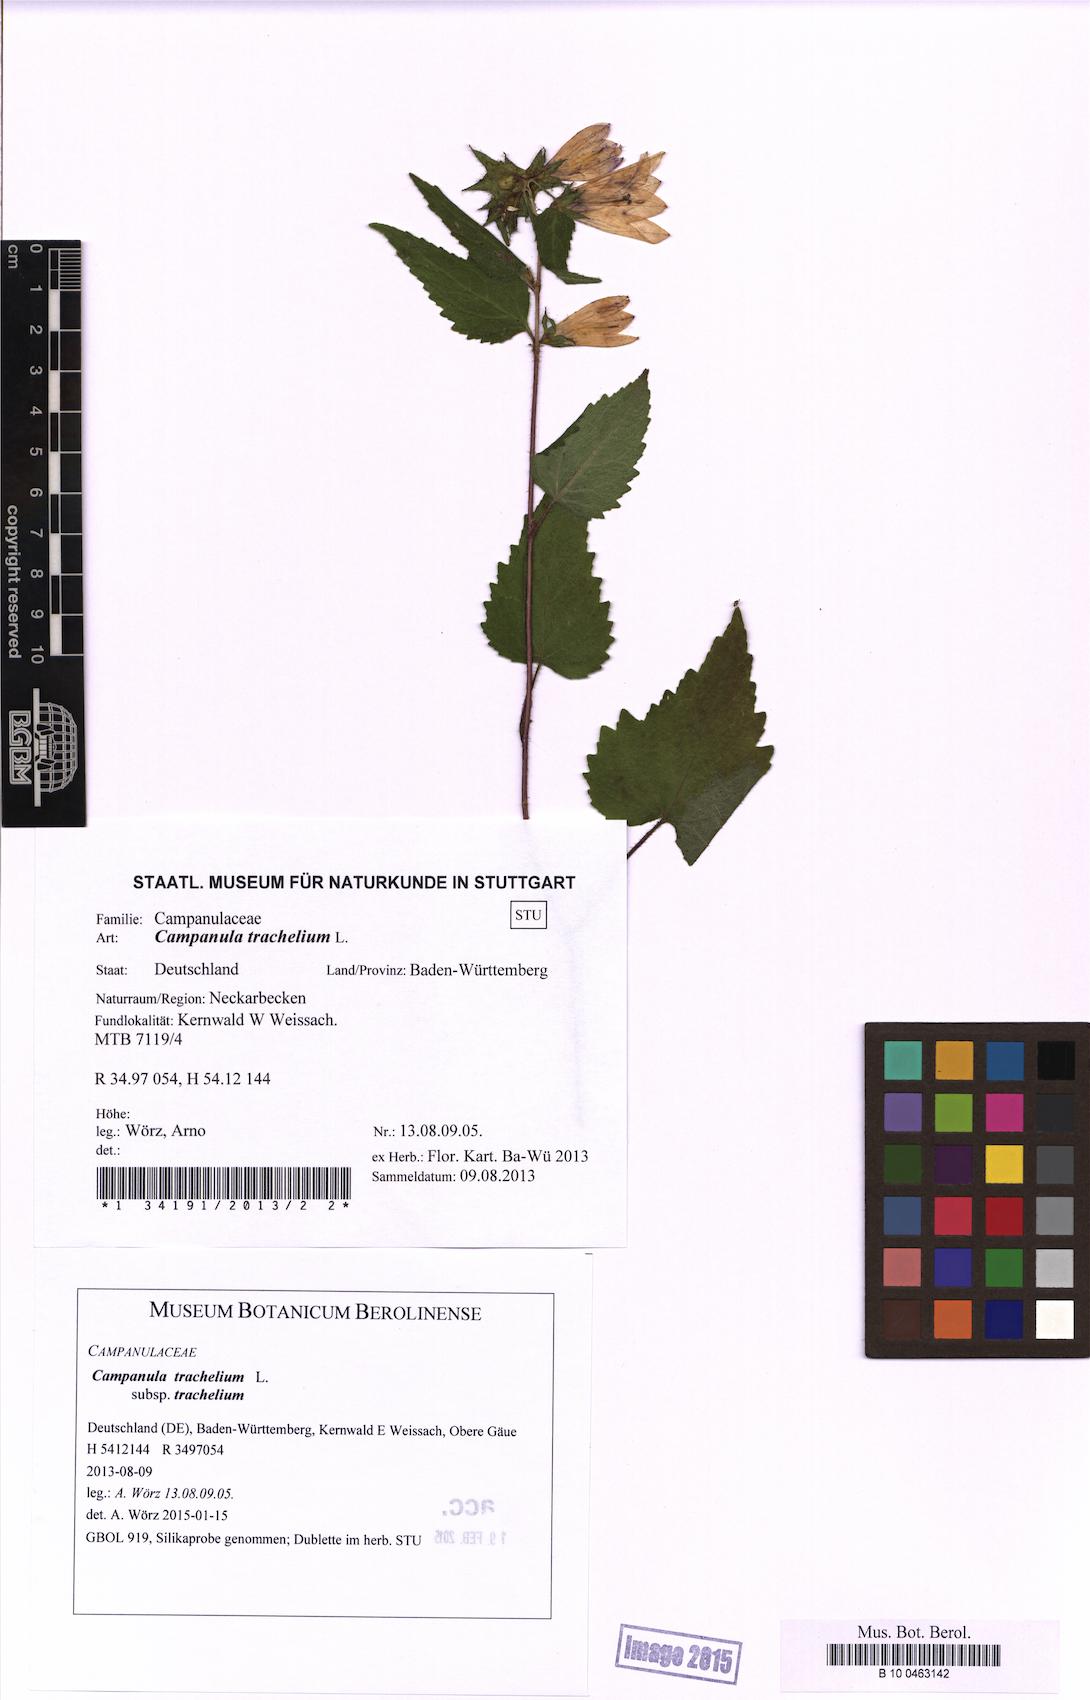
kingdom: Plantae
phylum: Tracheophyta
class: Magnoliopsida
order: Asterales
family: Campanulaceae
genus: Campanula
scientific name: Campanula trachelium
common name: Nettle-leaved bellflower
